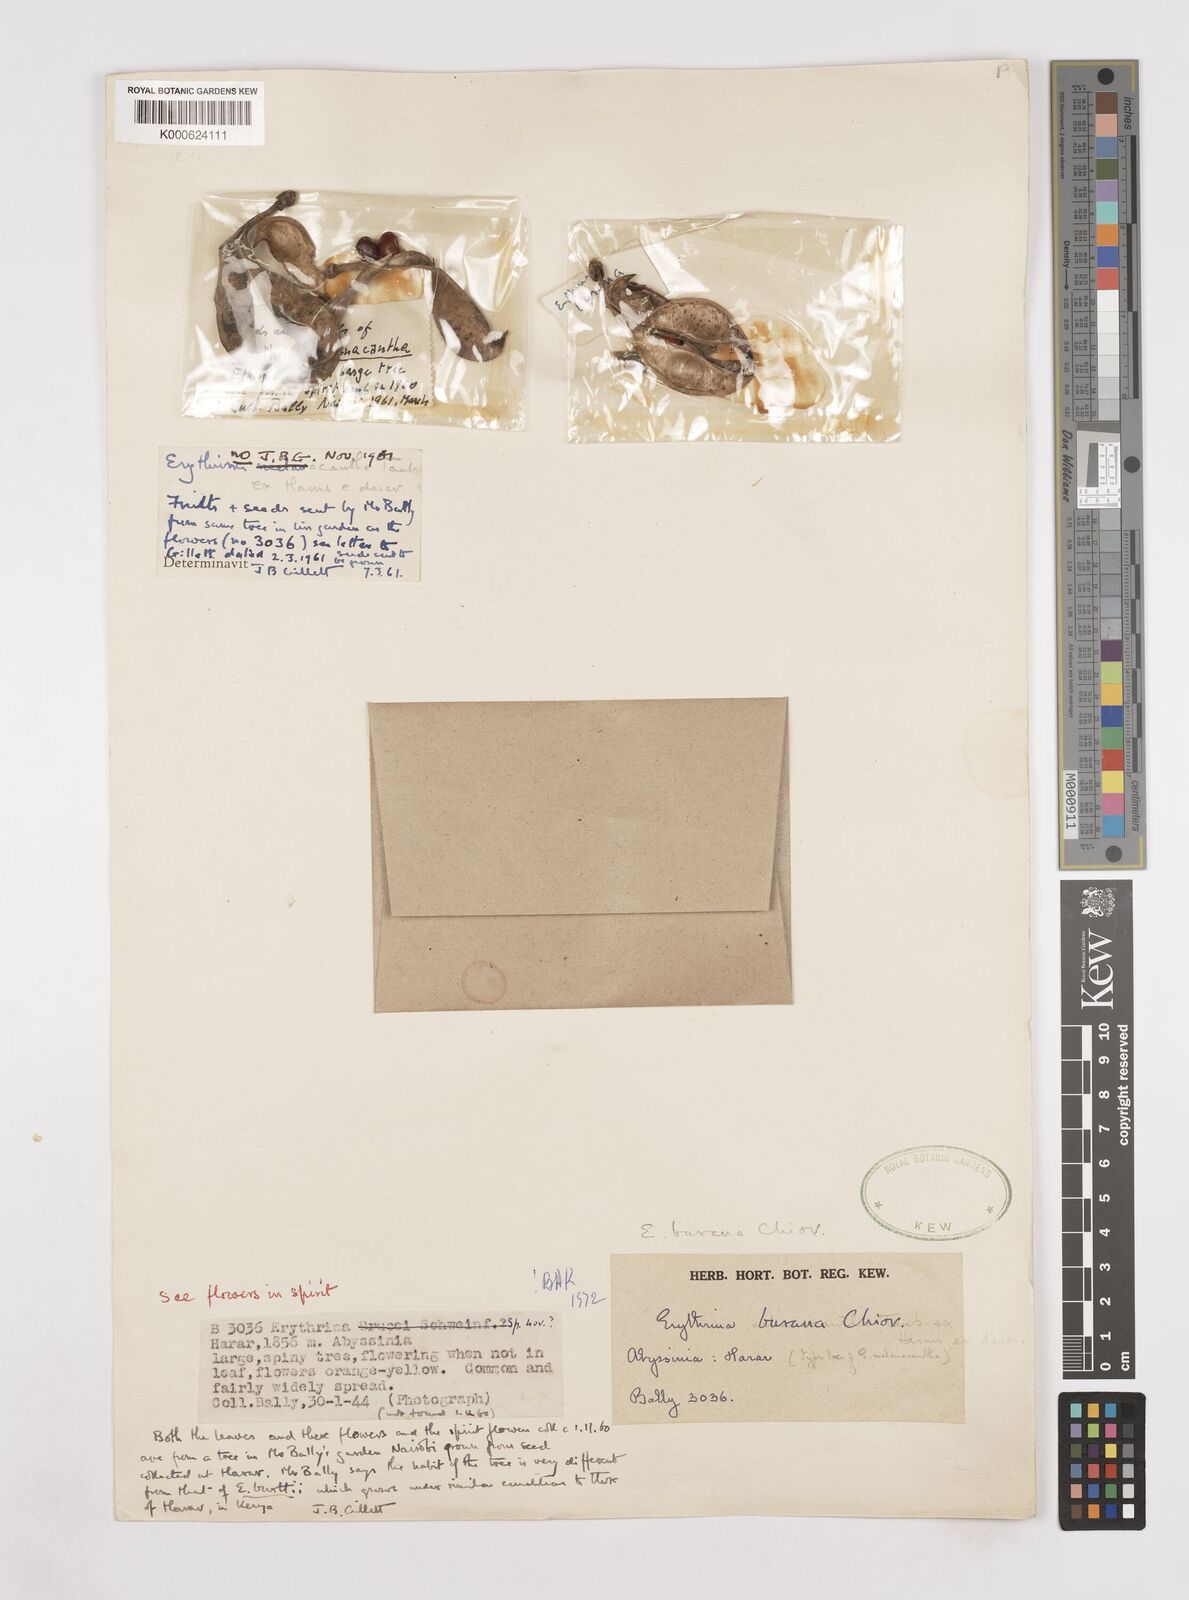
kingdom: Plantae
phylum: Tracheophyta
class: Magnoliopsida
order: Fabales
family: Fabaceae
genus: Erythrina
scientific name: Erythrina burana
